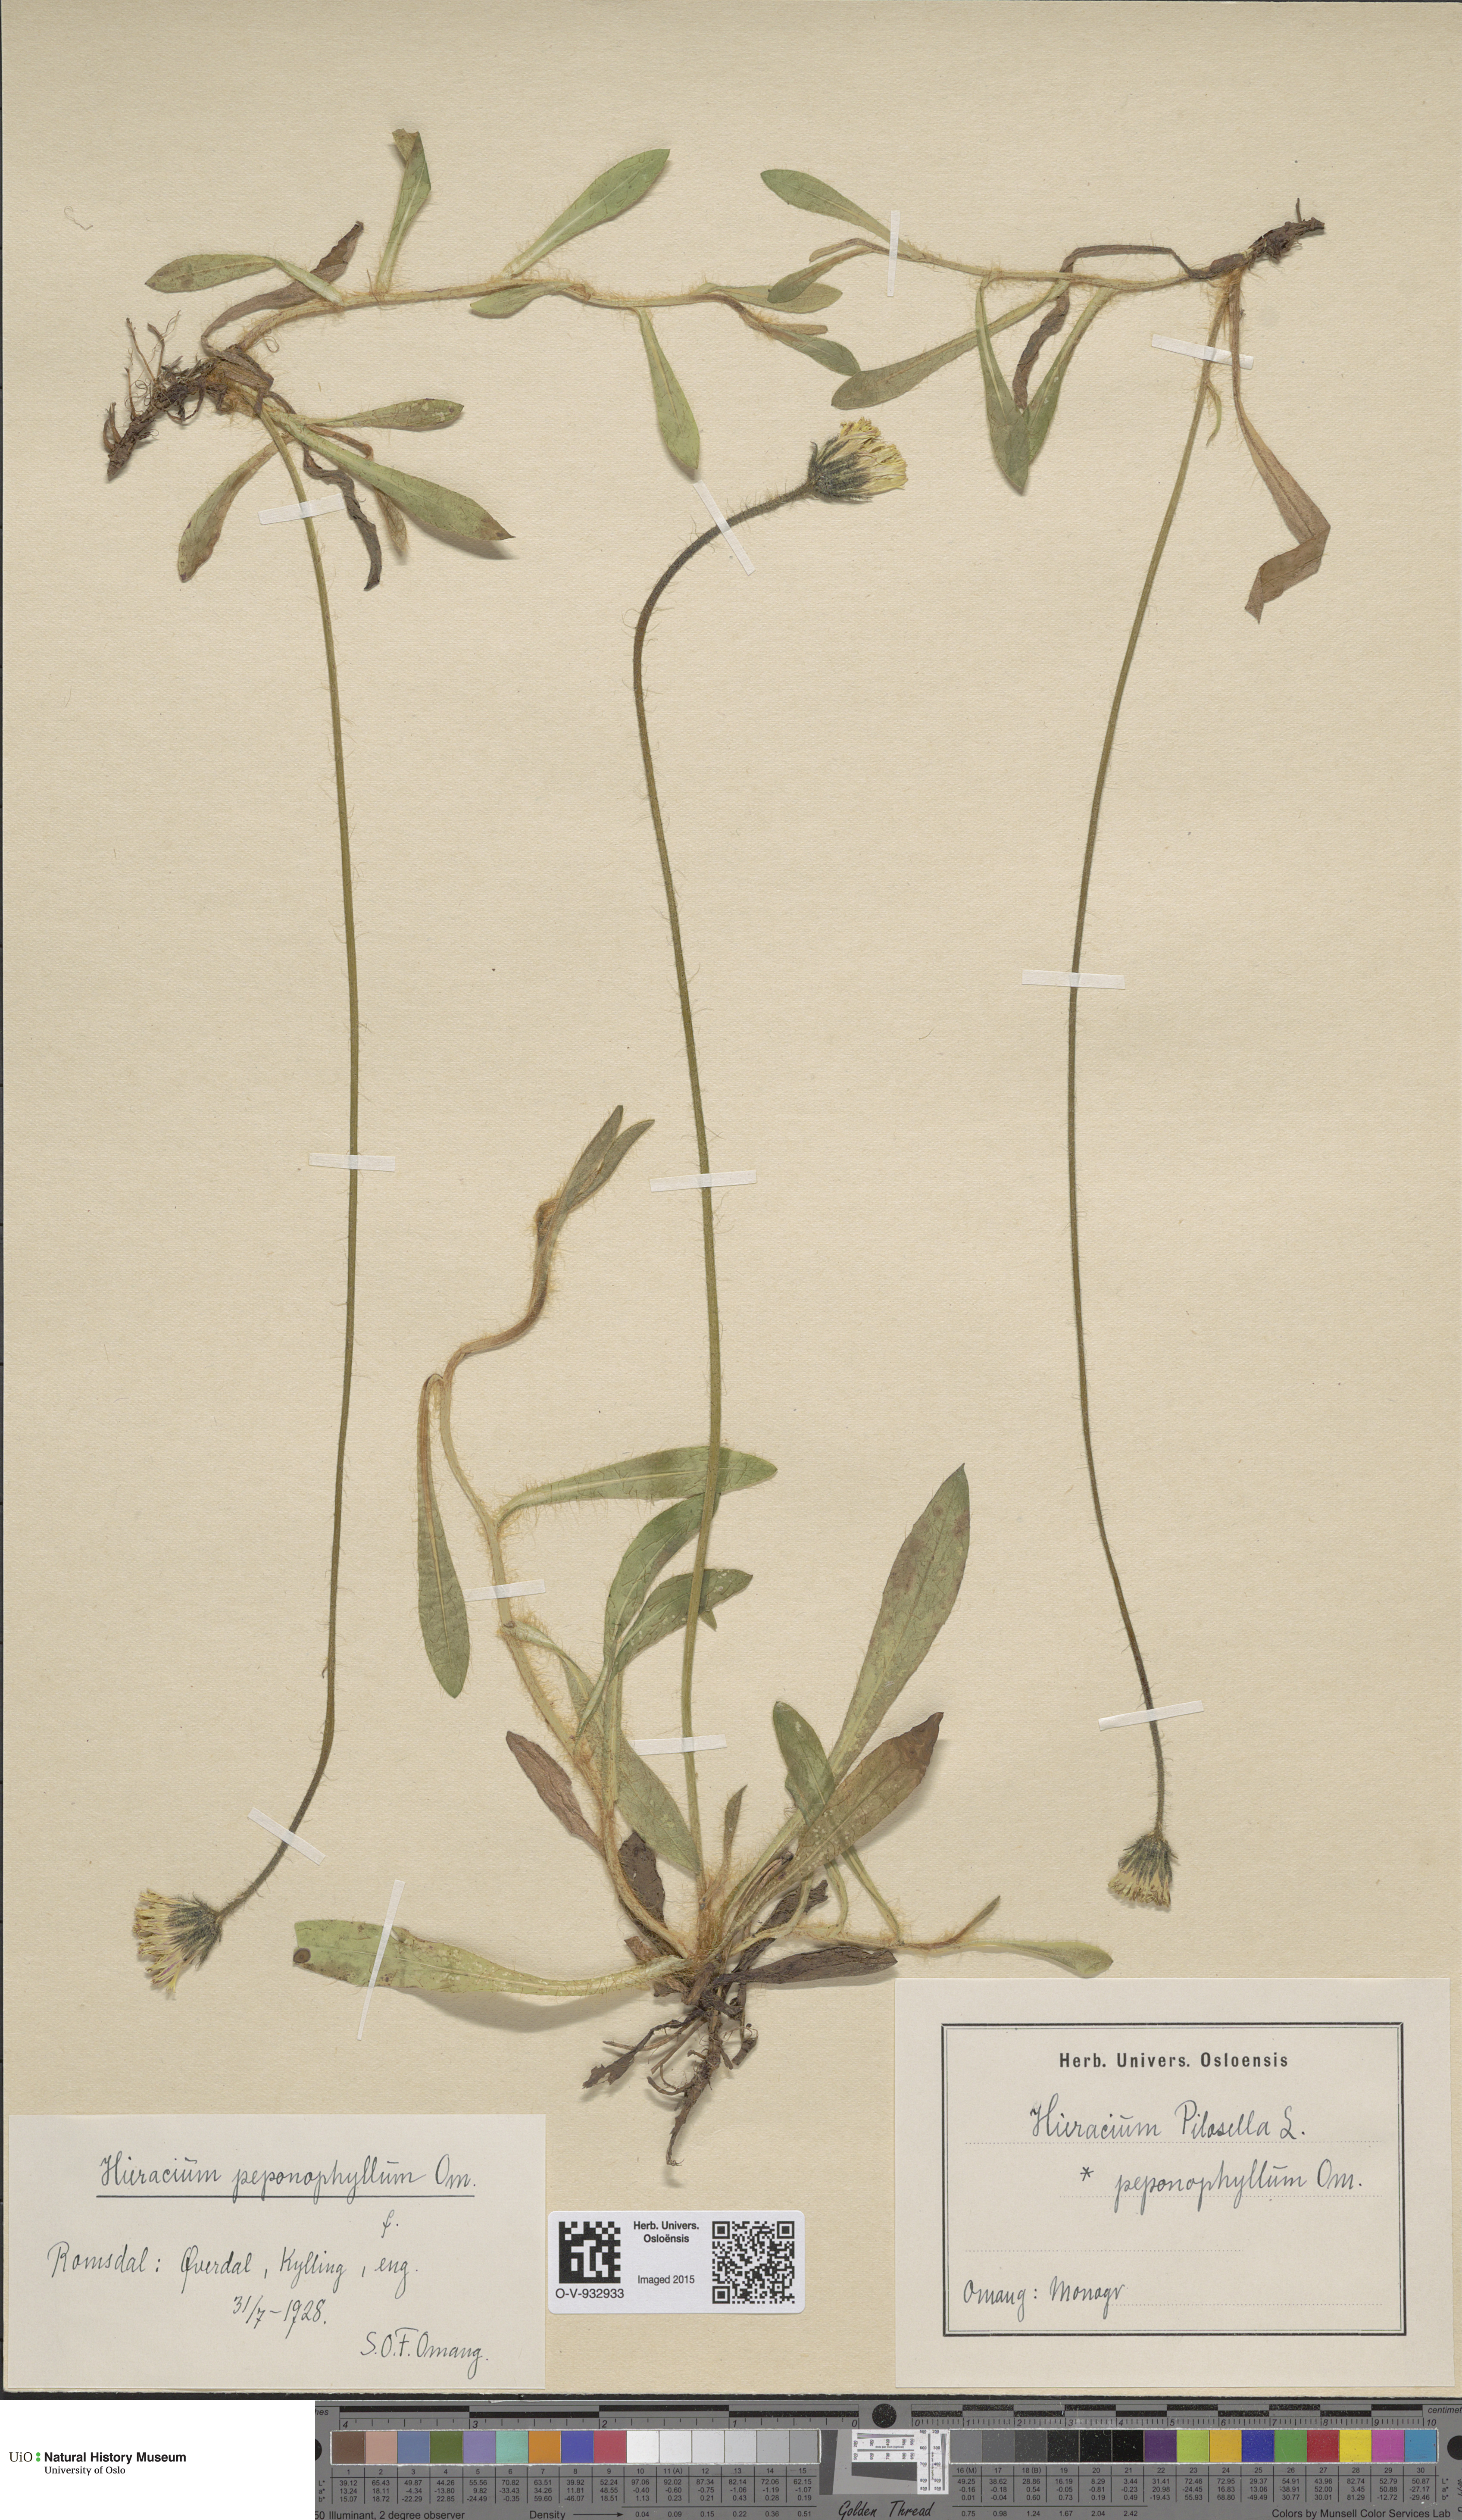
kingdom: Plantae
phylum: Tracheophyta
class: Magnoliopsida
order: Asterales
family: Asteraceae
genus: Pilosella
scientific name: Pilosella officinarum
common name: Mouse-ear hawkweed
